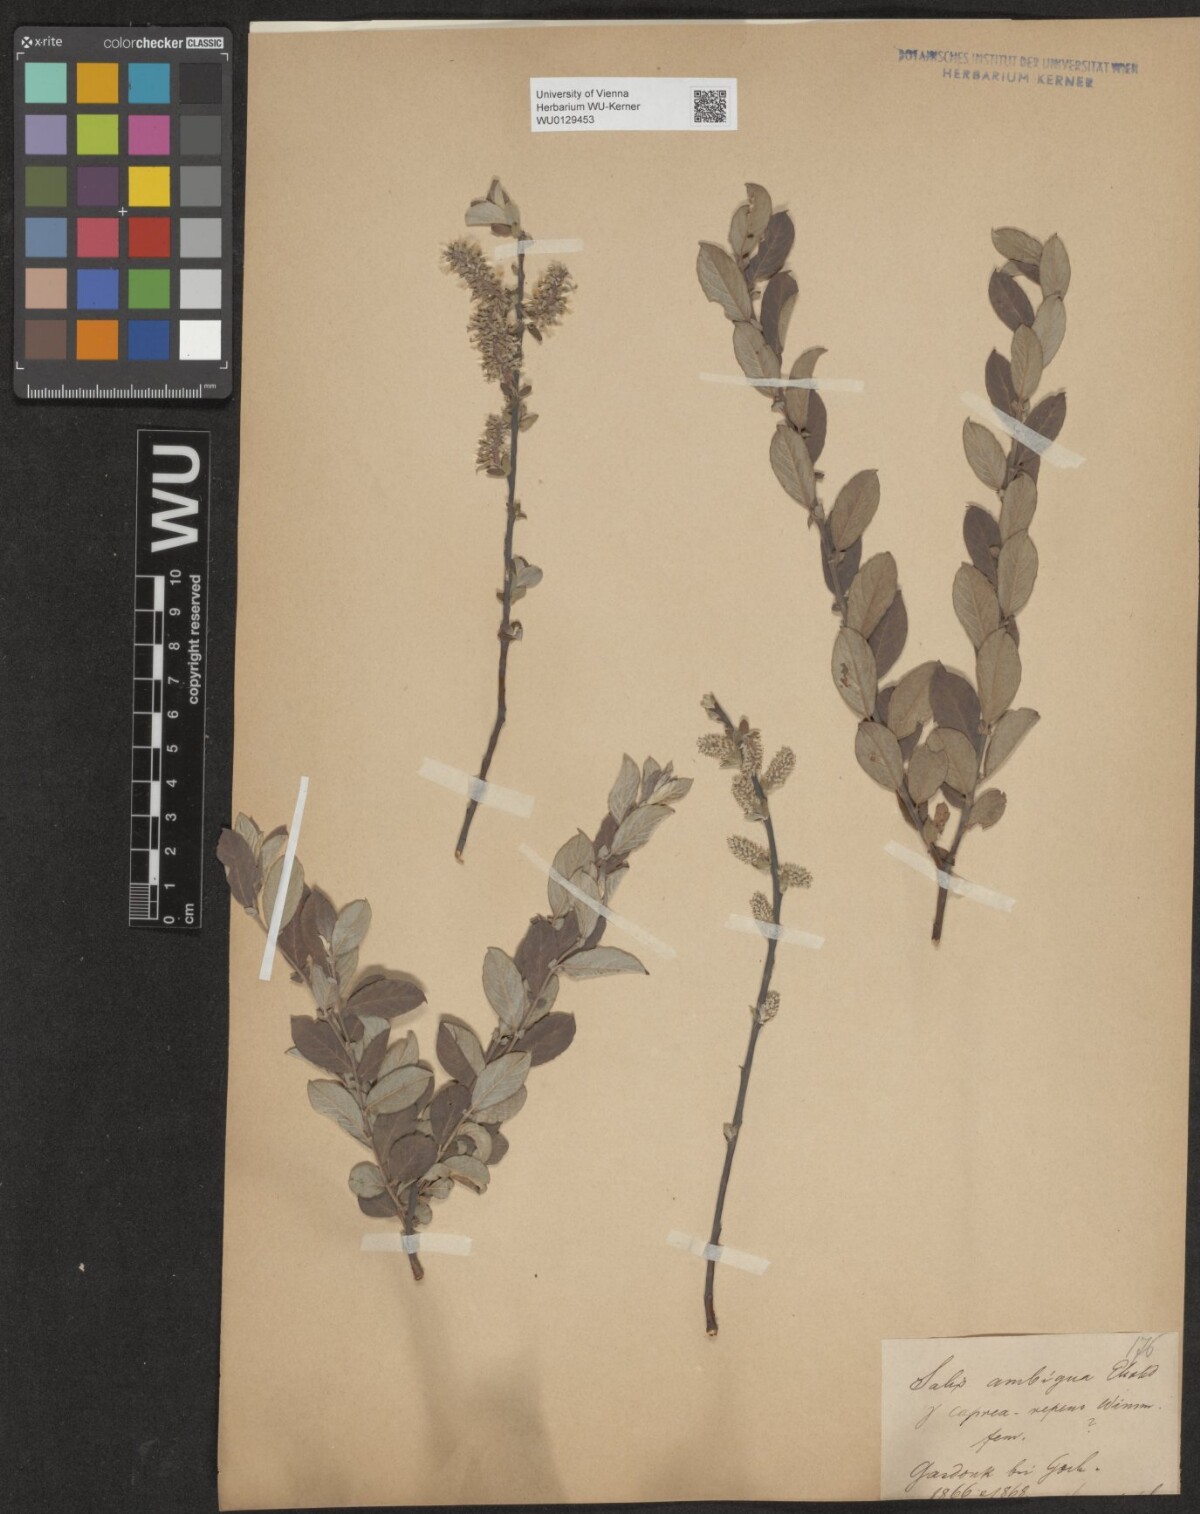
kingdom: Plantae
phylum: Tracheophyta
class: Magnoliopsida
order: Malpighiales
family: Salicaceae
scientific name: Salicaceae
